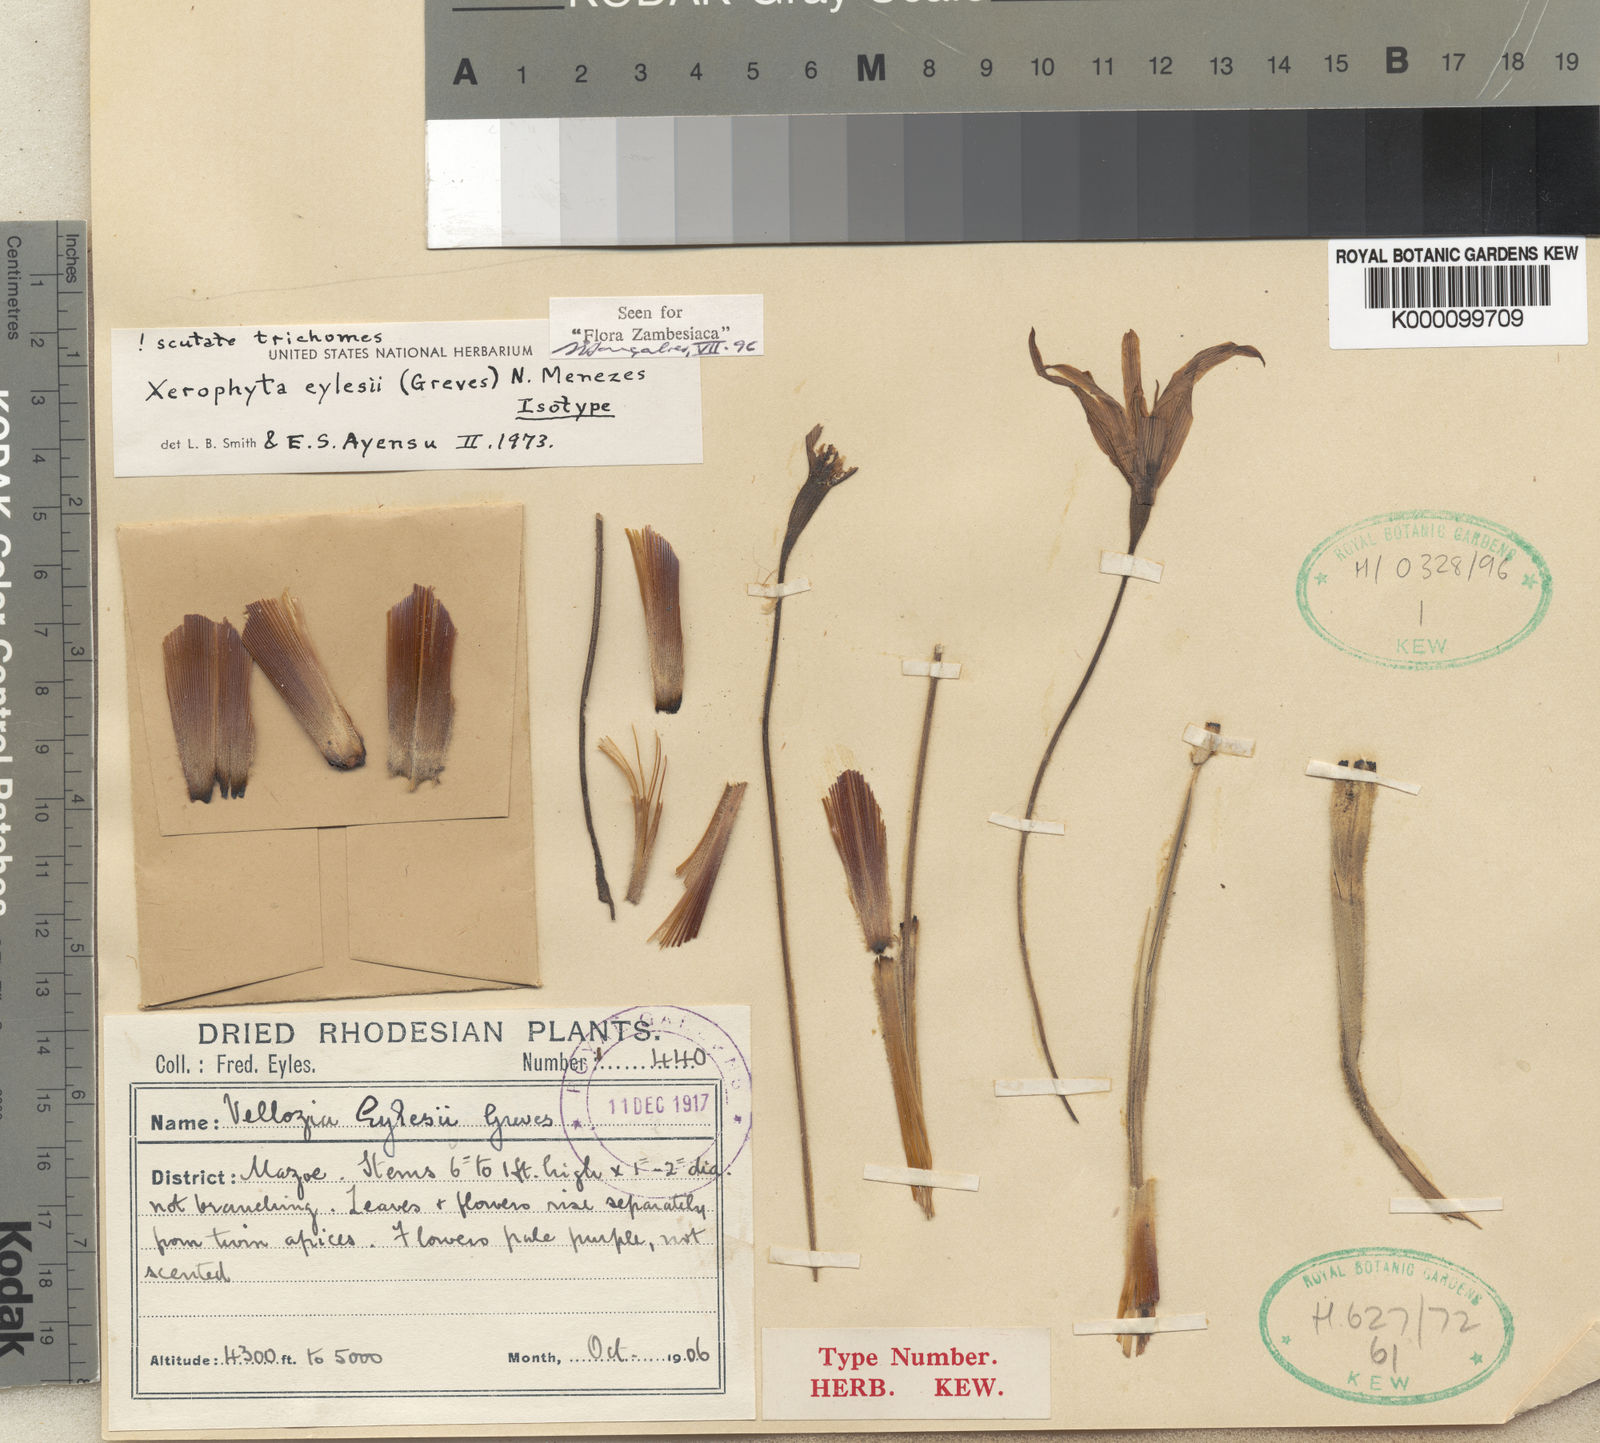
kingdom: Plantae
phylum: Tracheophyta
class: Liliopsida
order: Pandanales
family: Velloziaceae
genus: Xerophyta
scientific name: Xerophyta eylesii
